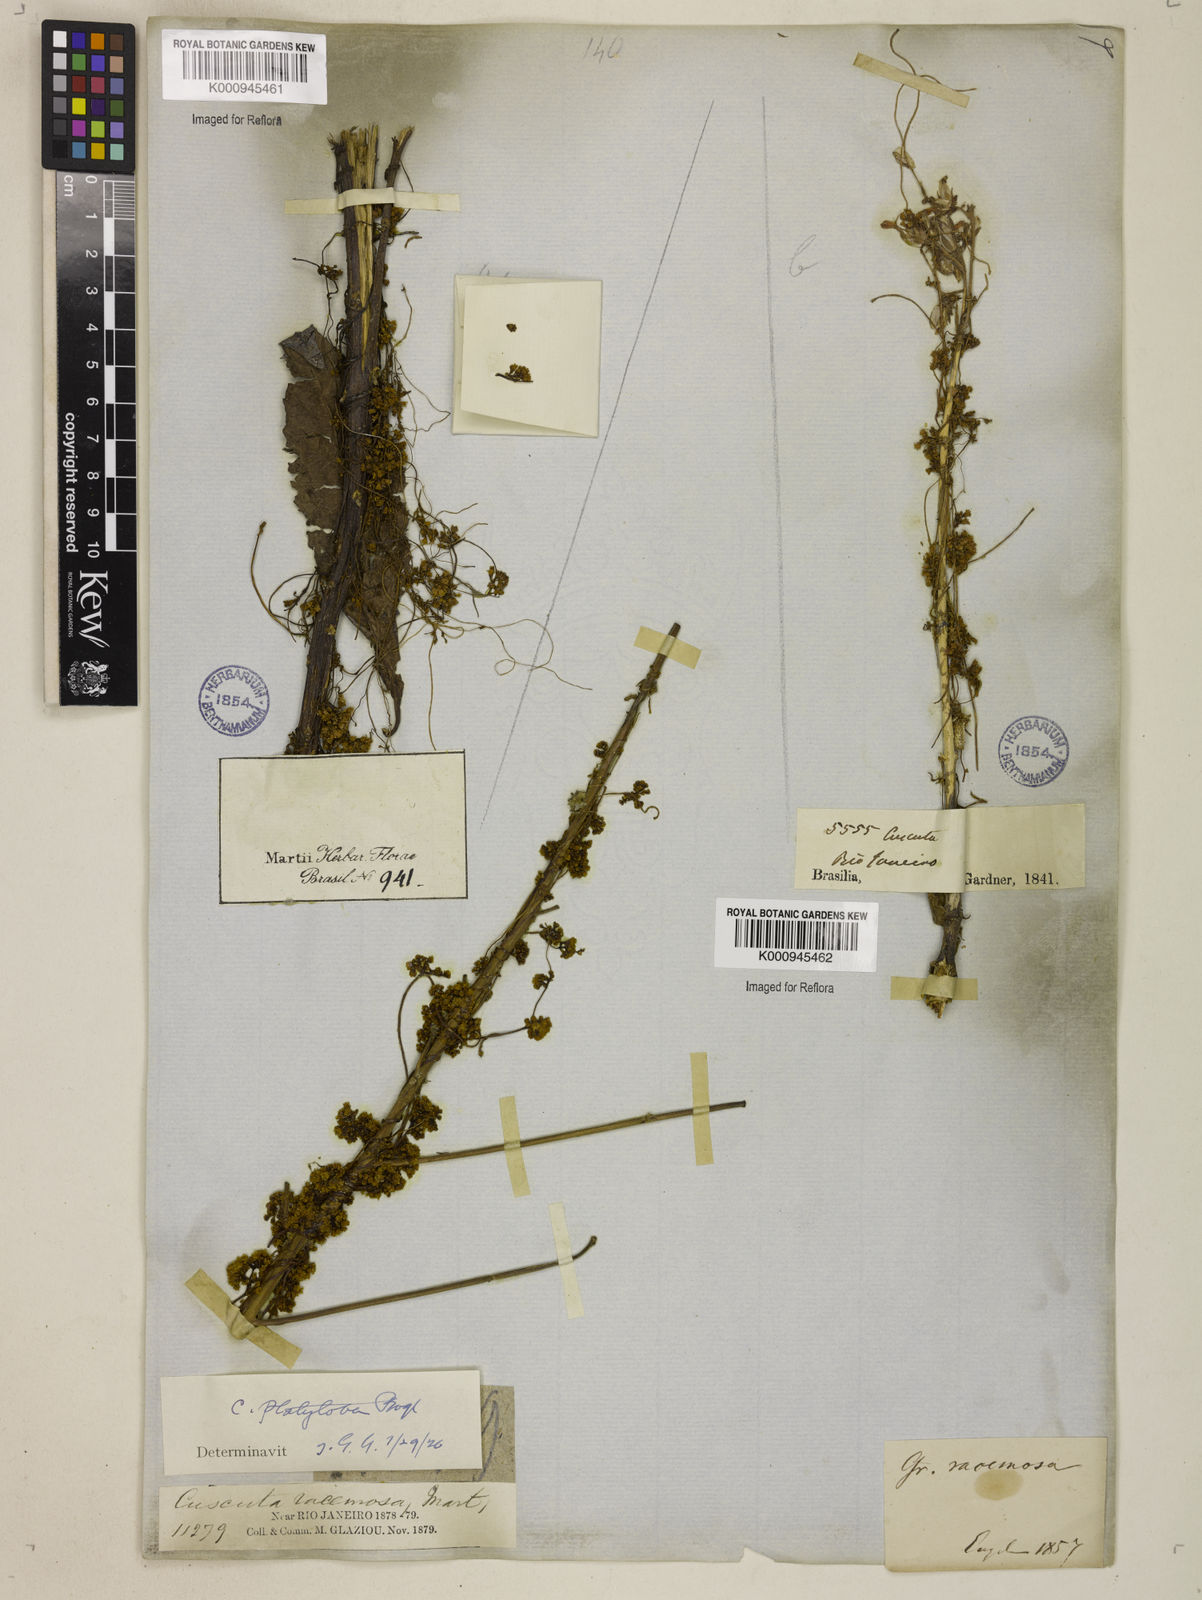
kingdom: Plantae
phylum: Tracheophyta
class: Magnoliopsida
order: Solanales
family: Convolvulaceae
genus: Cuscuta
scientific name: Cuscuta platyloba
